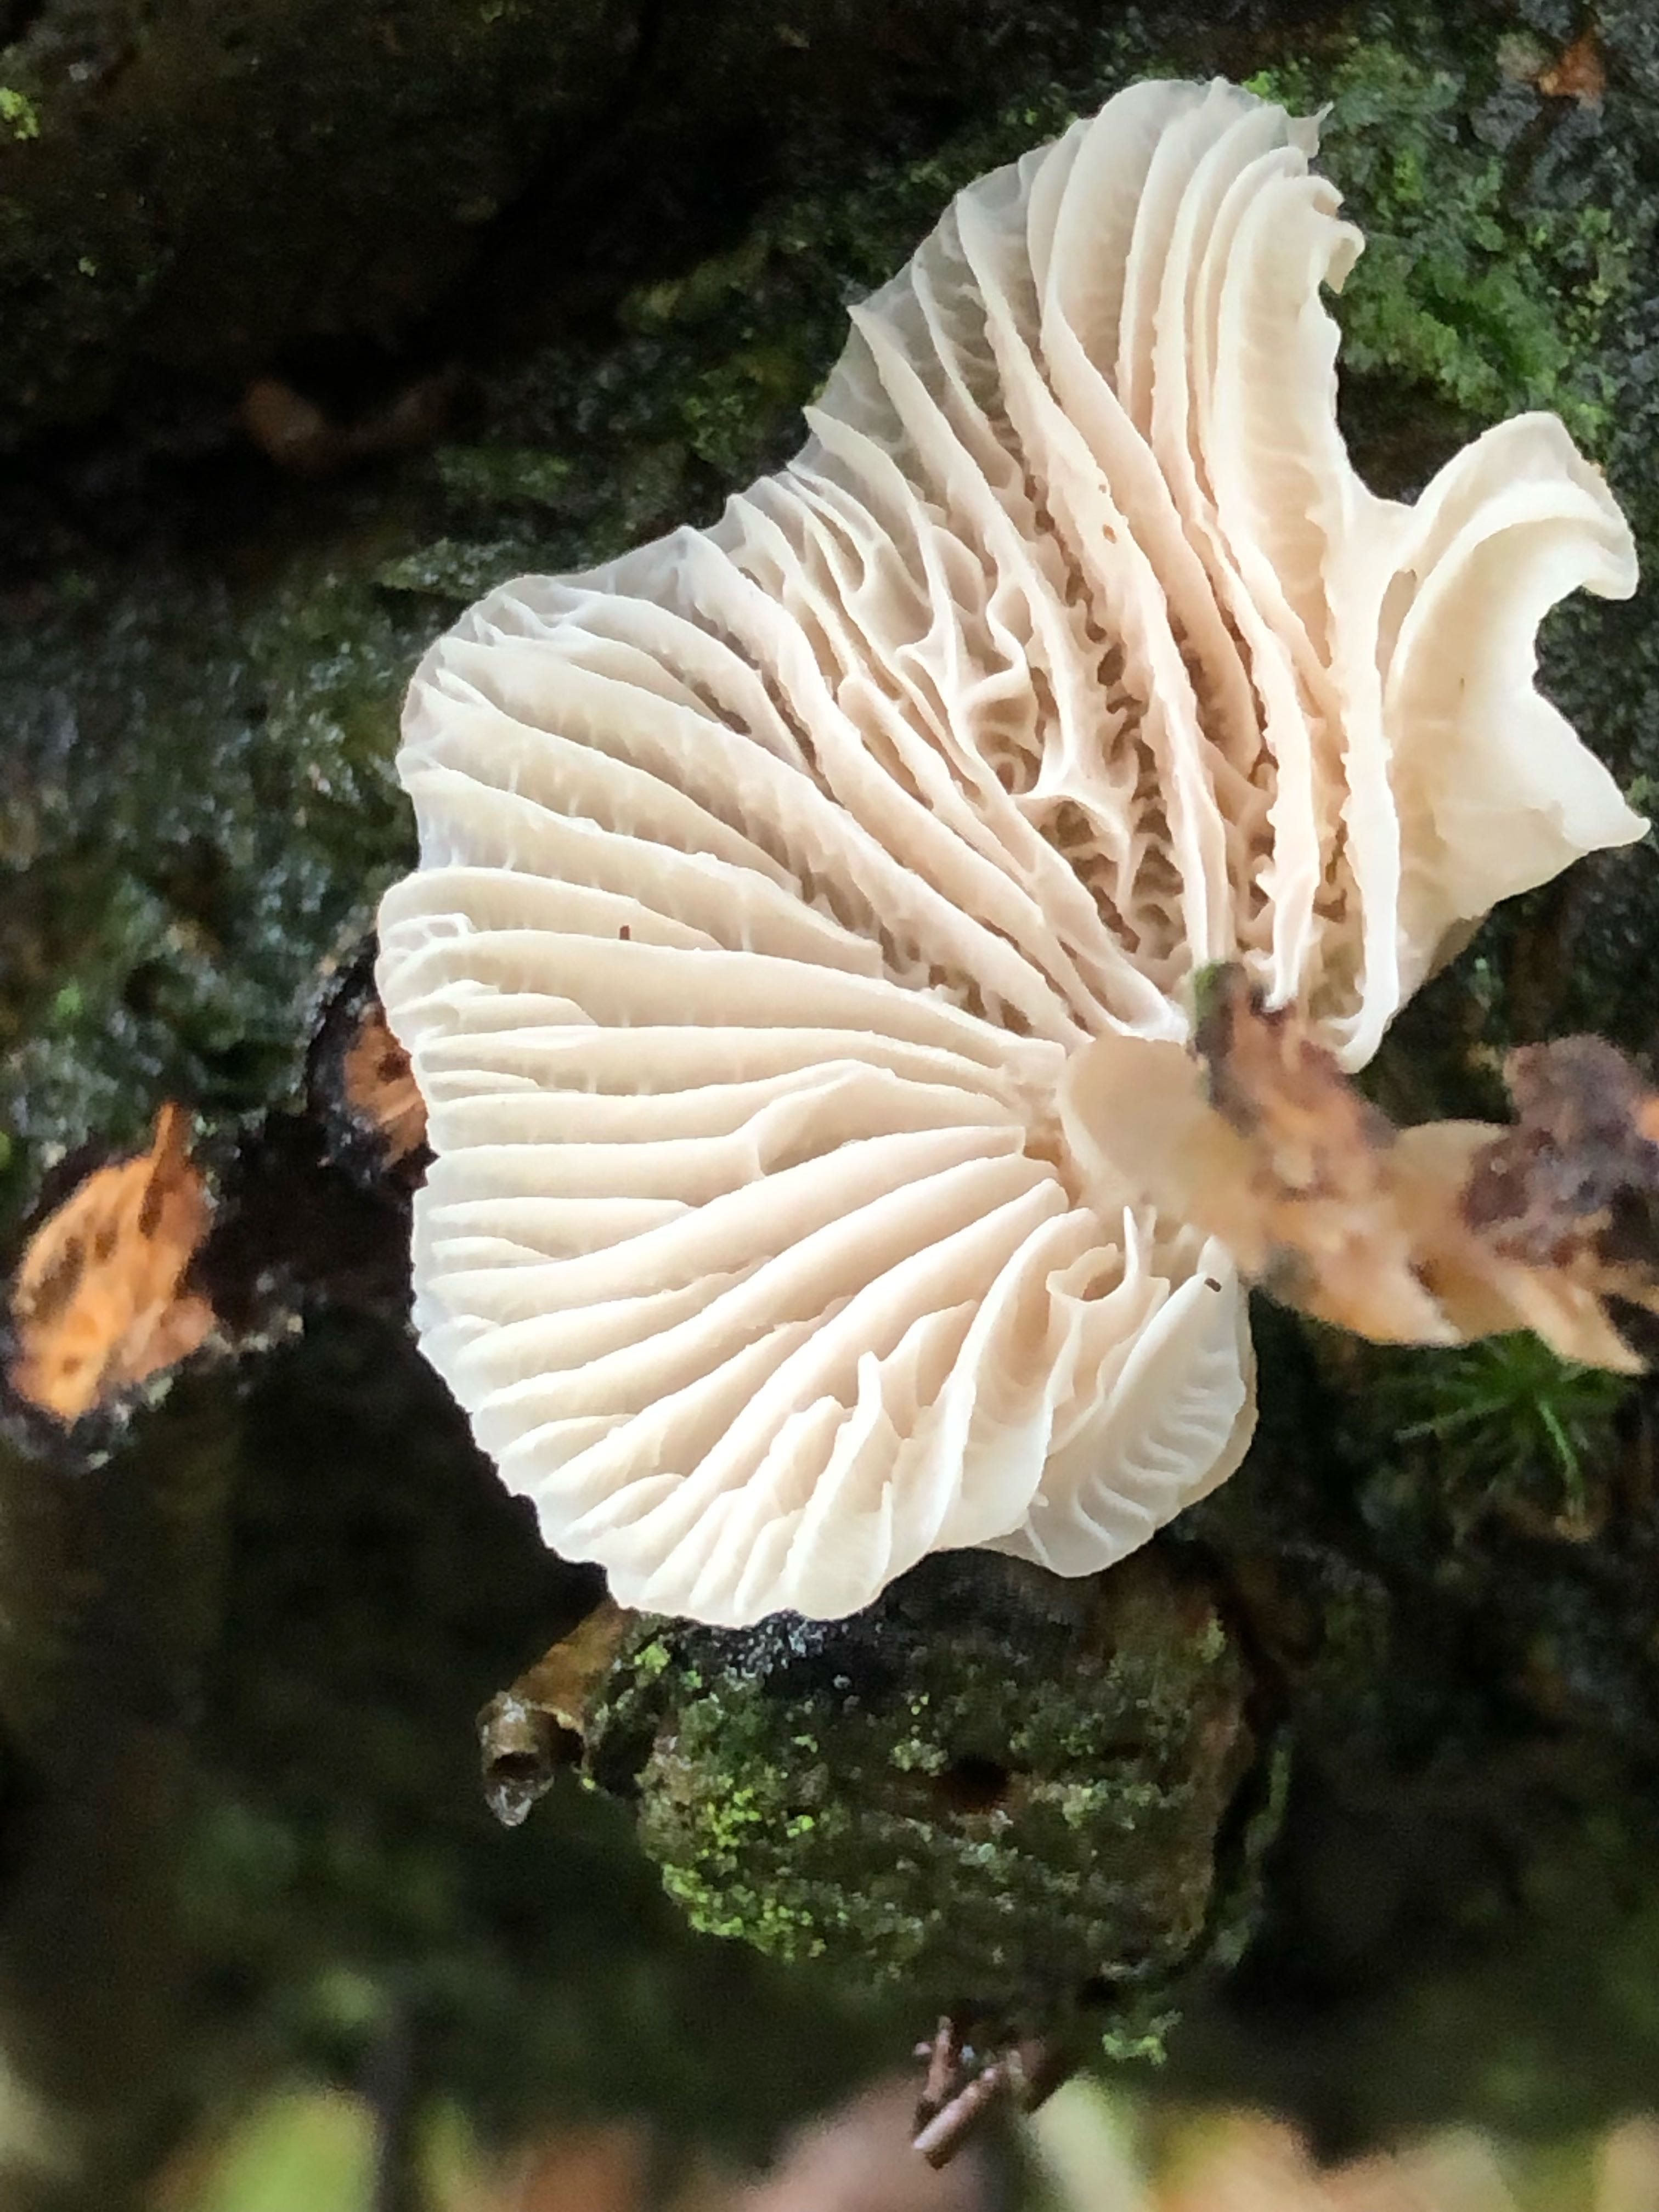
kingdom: Fungi
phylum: Basidiomycota
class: Agaricomycetes
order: Agaricales
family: Mycenaceae
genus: Mycena
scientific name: Mycena galericulata
